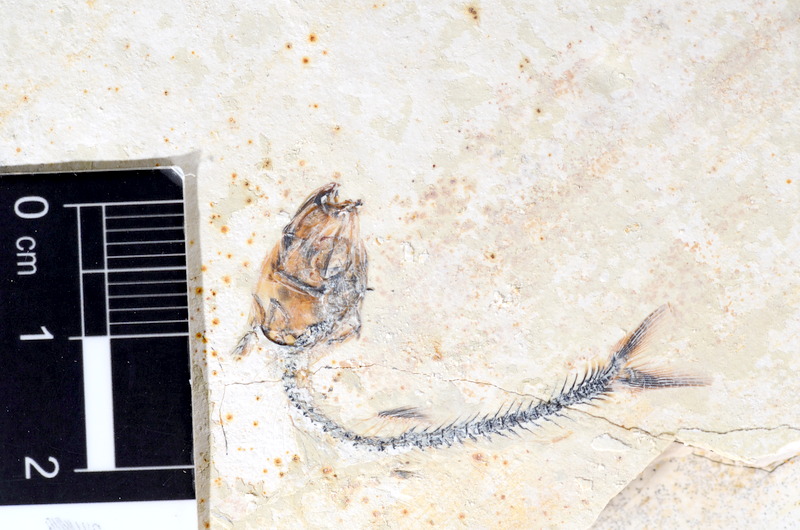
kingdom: Animalia
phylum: Chordata
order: Salmoniformes
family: Orthogonikleithridae
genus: Orthogonikleithrus
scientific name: Orthogonikleithrus hoelli
